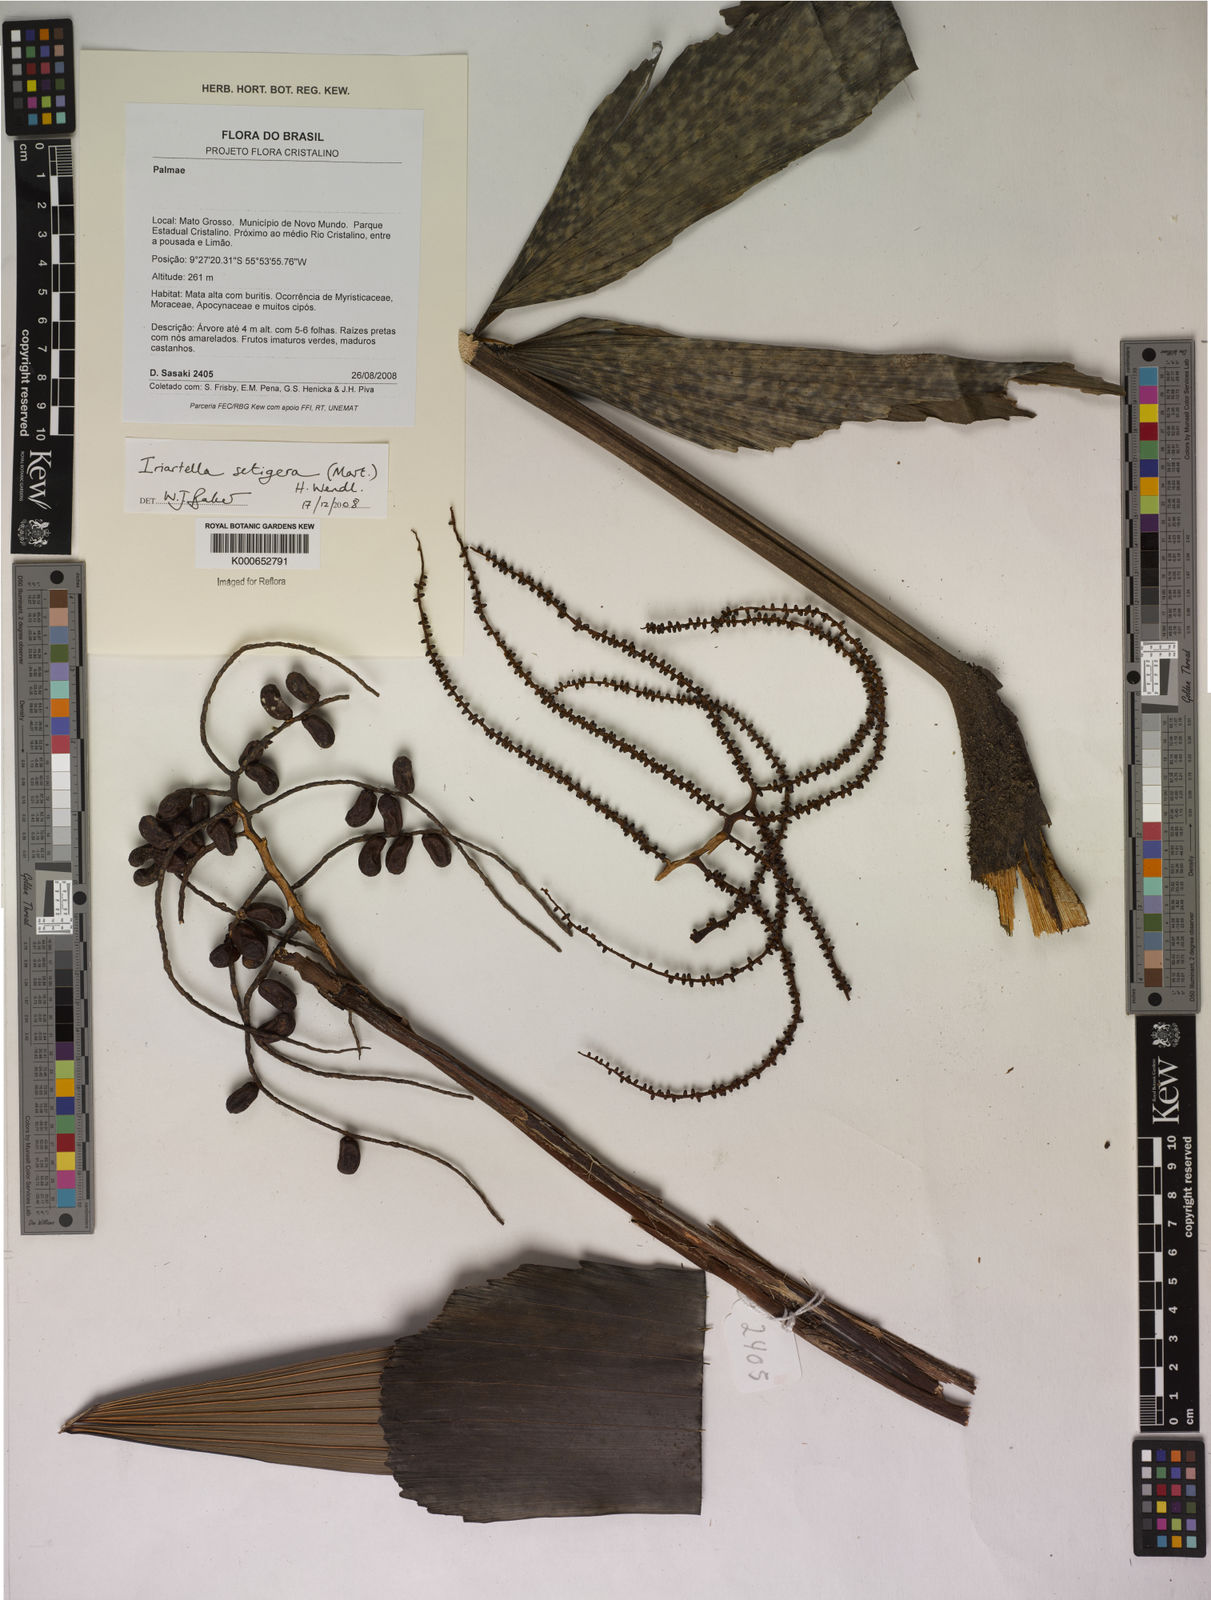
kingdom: Plantae
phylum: Tracheophyta
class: Liliopsida
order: Arecales
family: Arecaceae
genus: Iriartella
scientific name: Iriartella setigera
